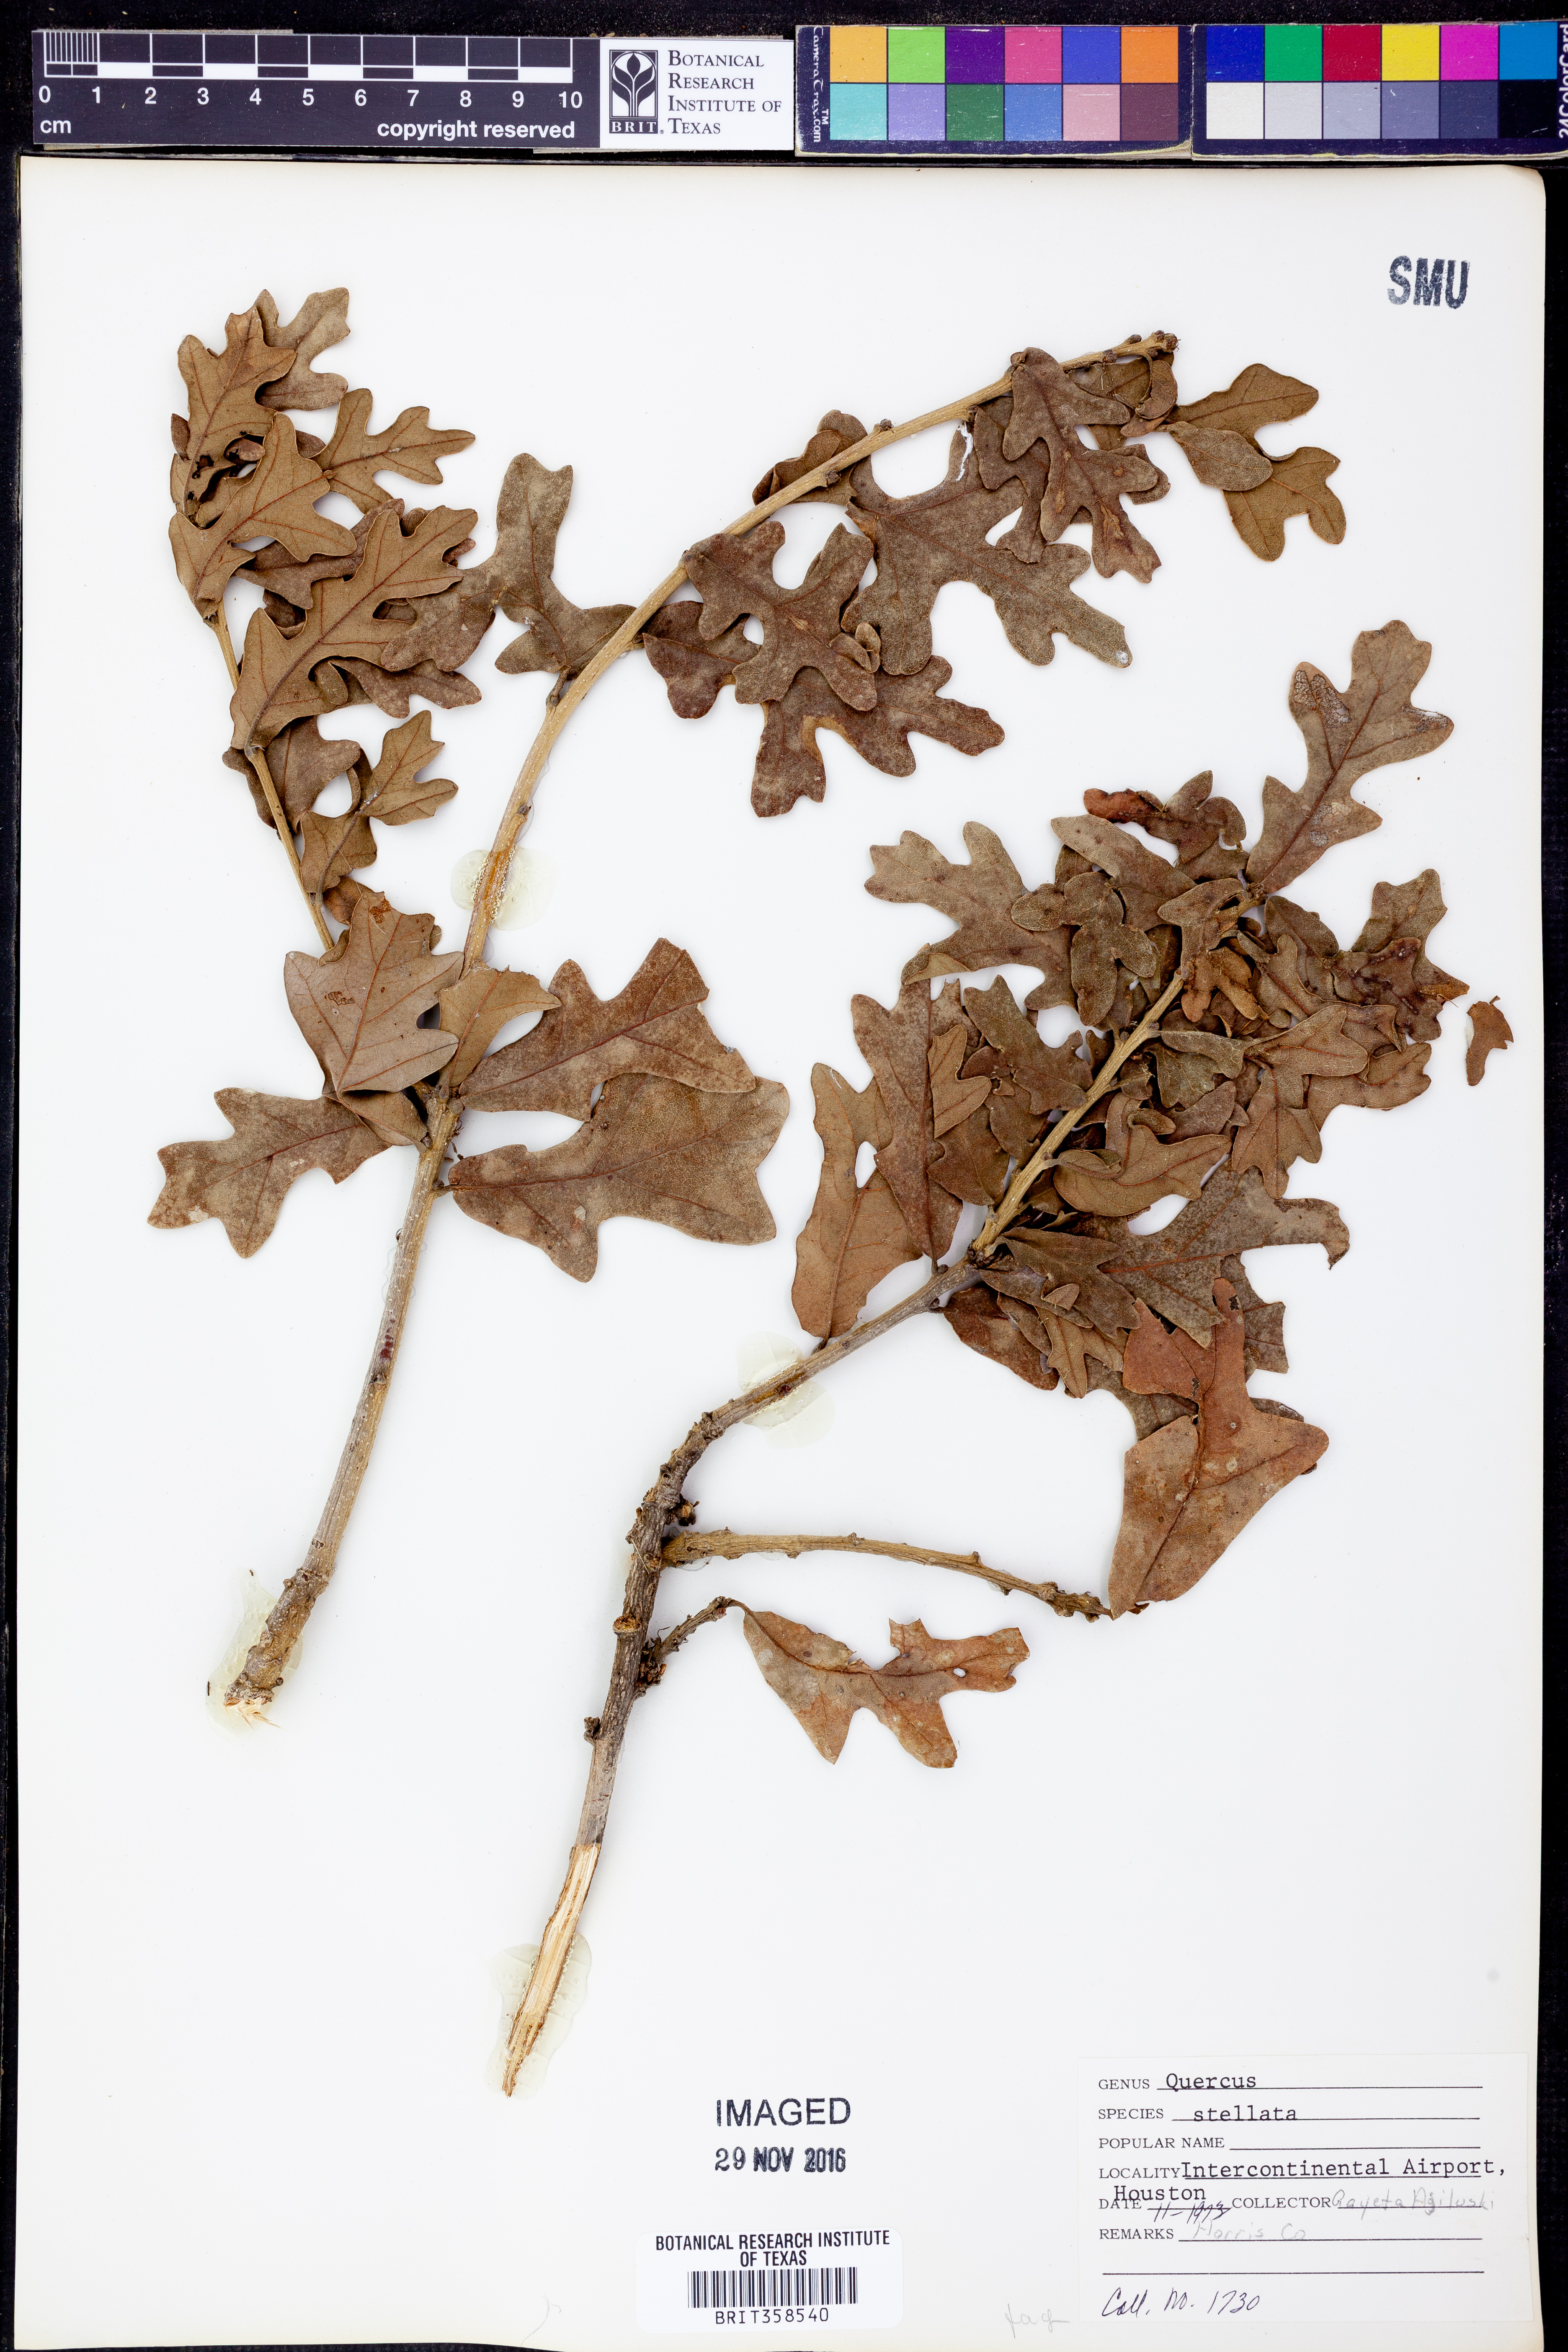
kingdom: Plantae
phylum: Tracheophyta
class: Magnoliopsida
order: Fagales
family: Fagaceae
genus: Quercus
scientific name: Quercus stellata
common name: Post oak
